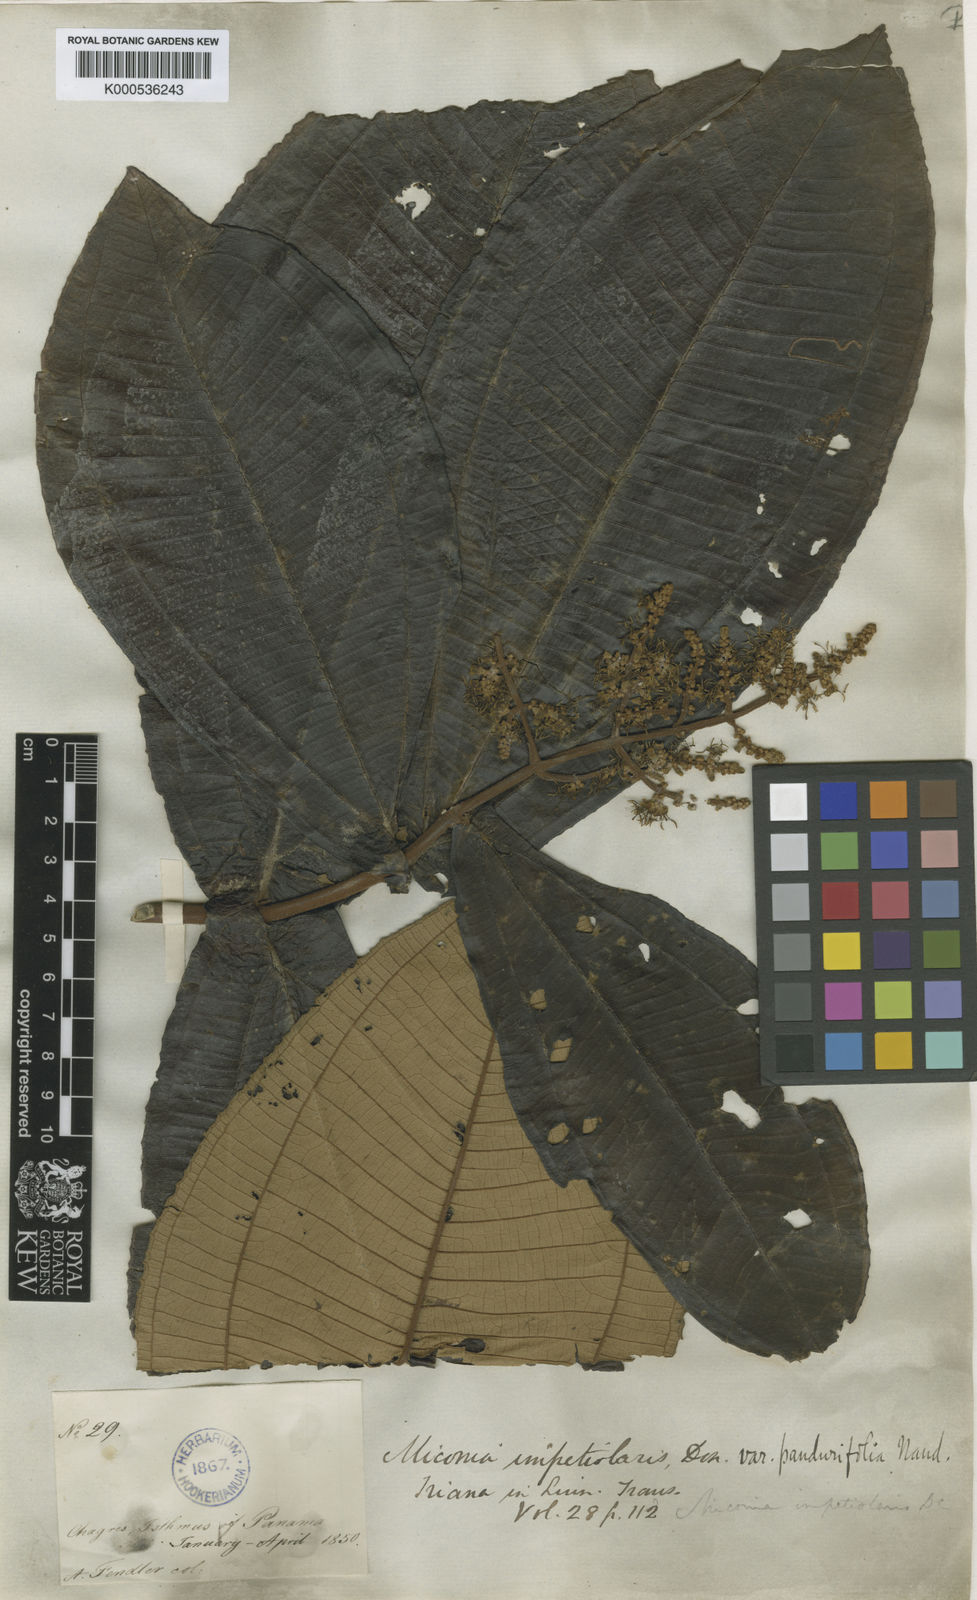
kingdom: Plantae
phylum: Tracheophyta
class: Magnoliopsida
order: Myrtales
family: Melastomataceae
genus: Miconia
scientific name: Miconia impetiolaris
